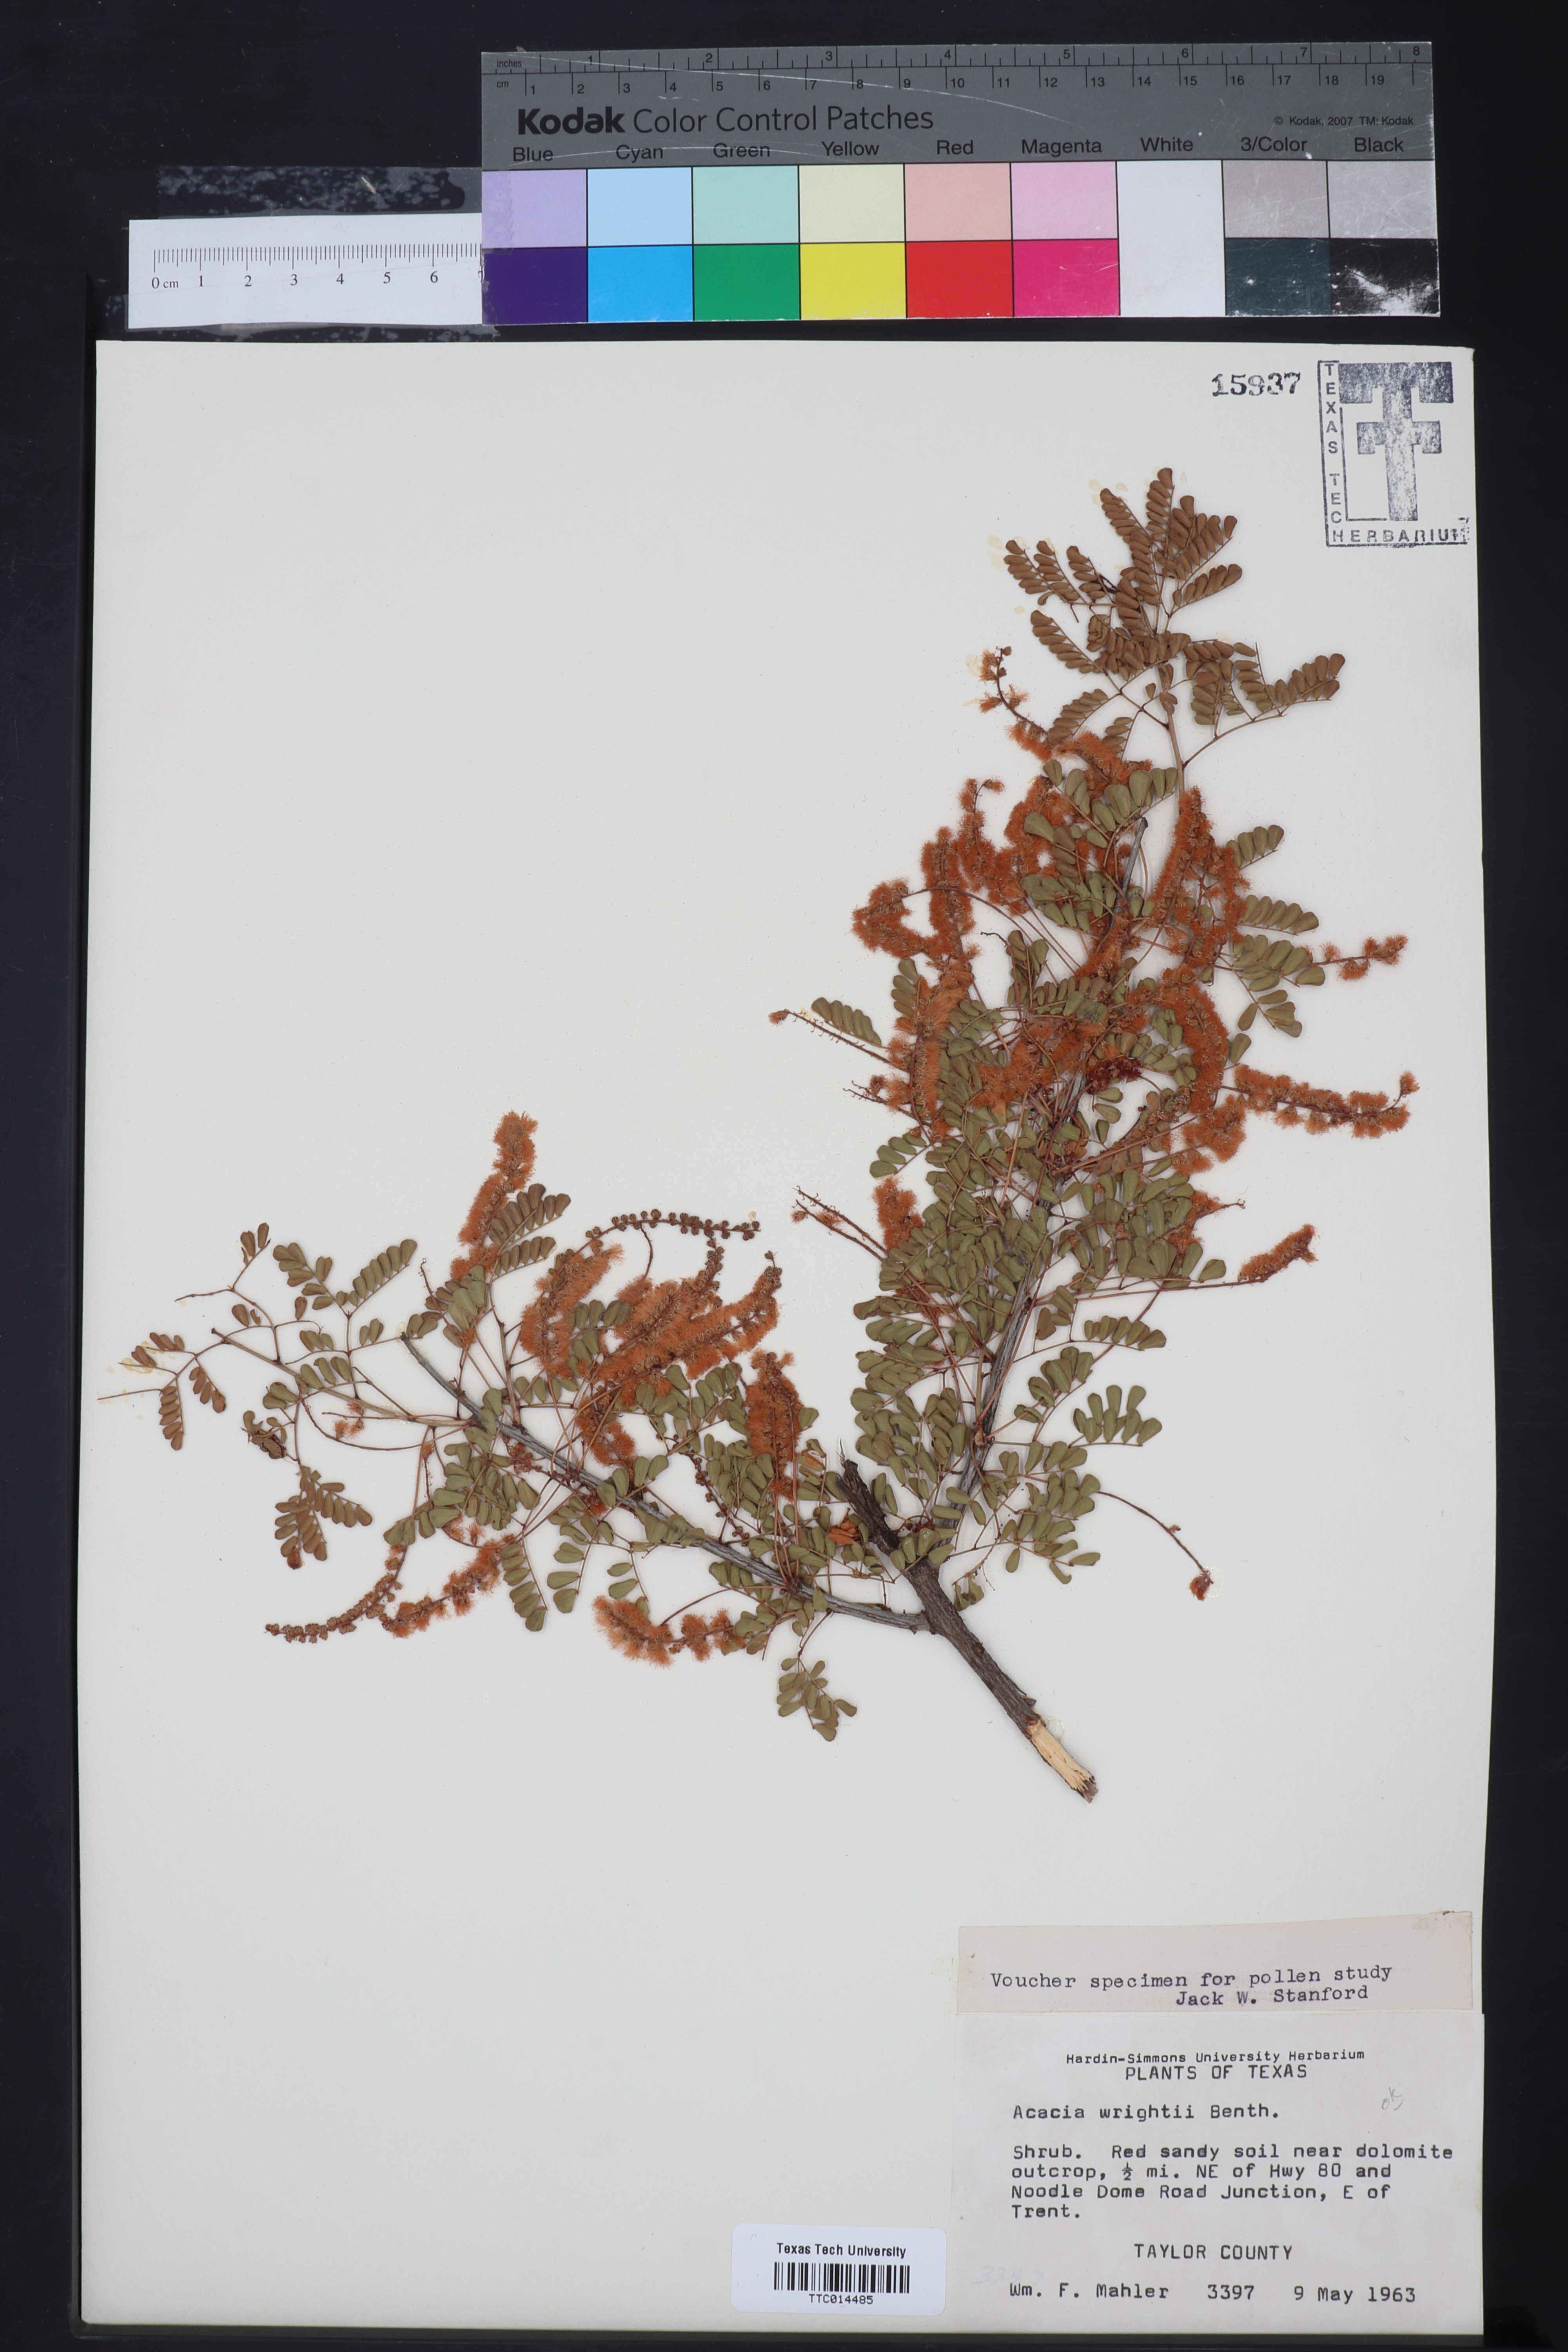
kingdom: Plantae
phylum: Tracheophyta
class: Magnoliopsida
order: Fabales
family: Fabaceae
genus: Senegalia
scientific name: Senegalia wrightii
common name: Texas cat's-claw
